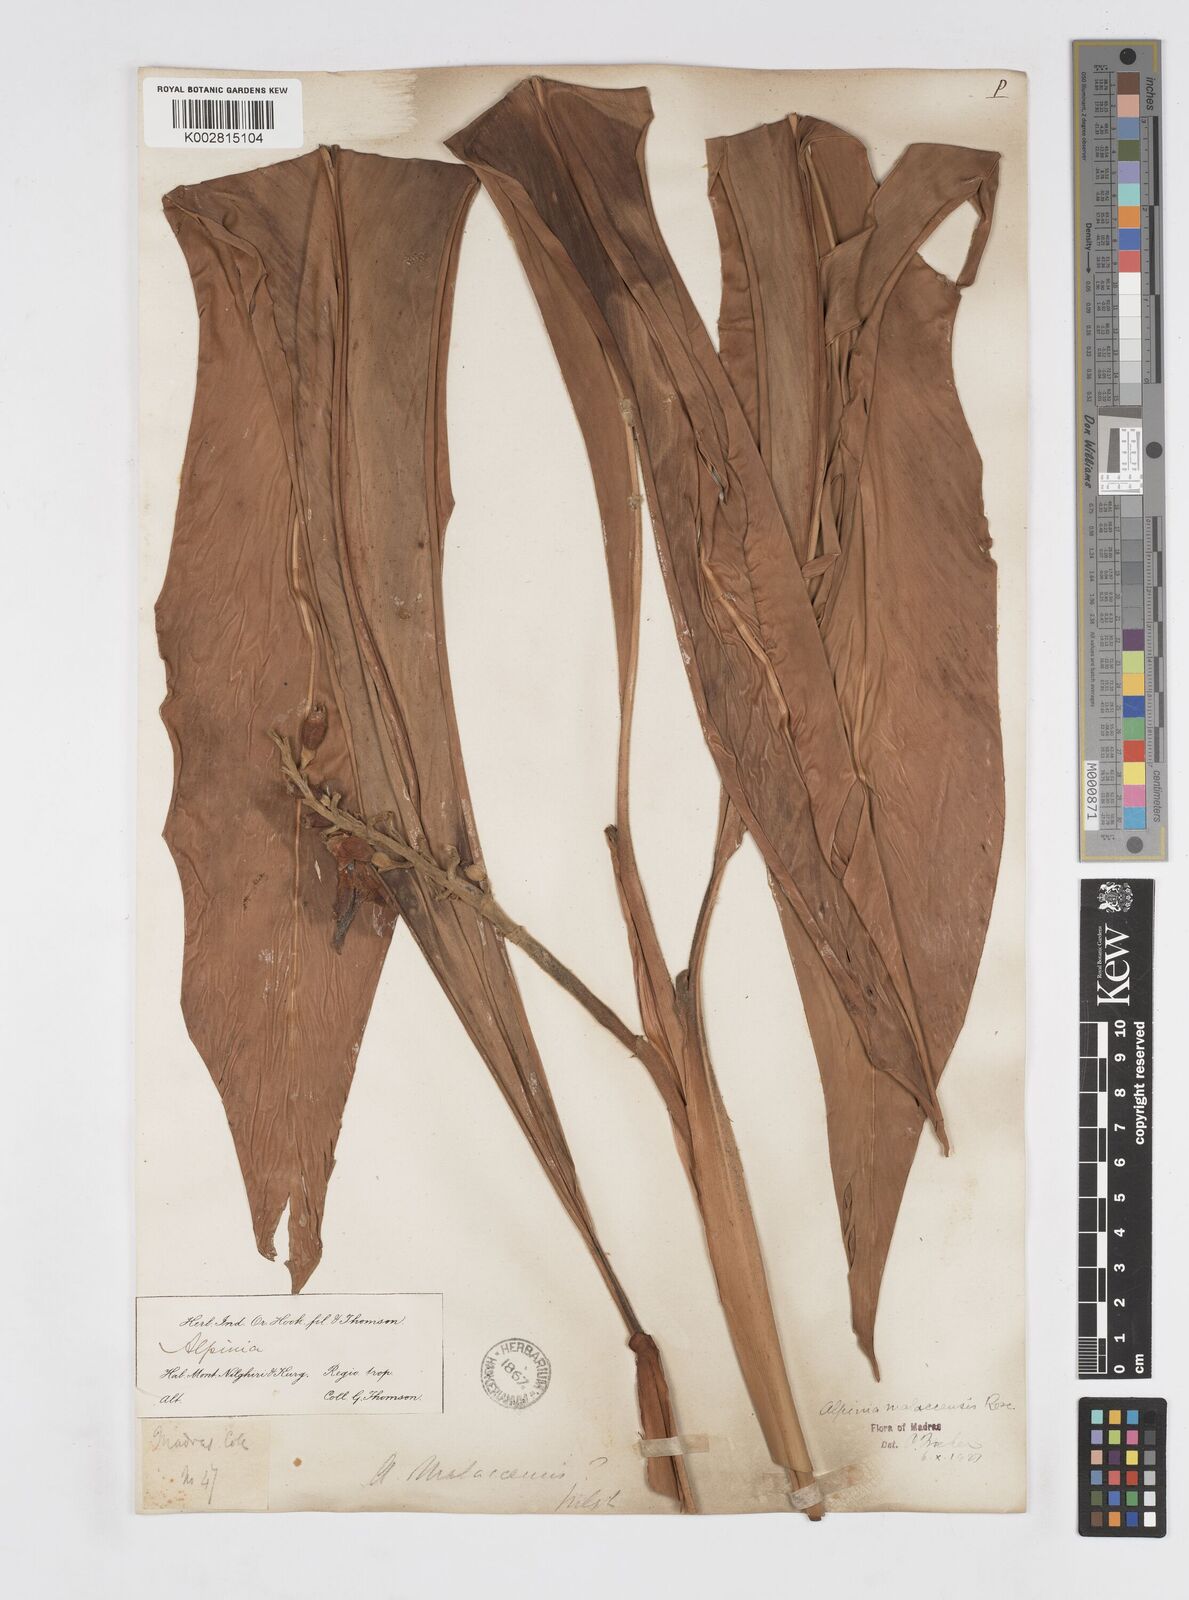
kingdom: Plantae
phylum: Tracheophyta
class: Liliopsida
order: Zingiberales
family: Zingiberaceae
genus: Alpinia
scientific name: Alpinia malaccensis
